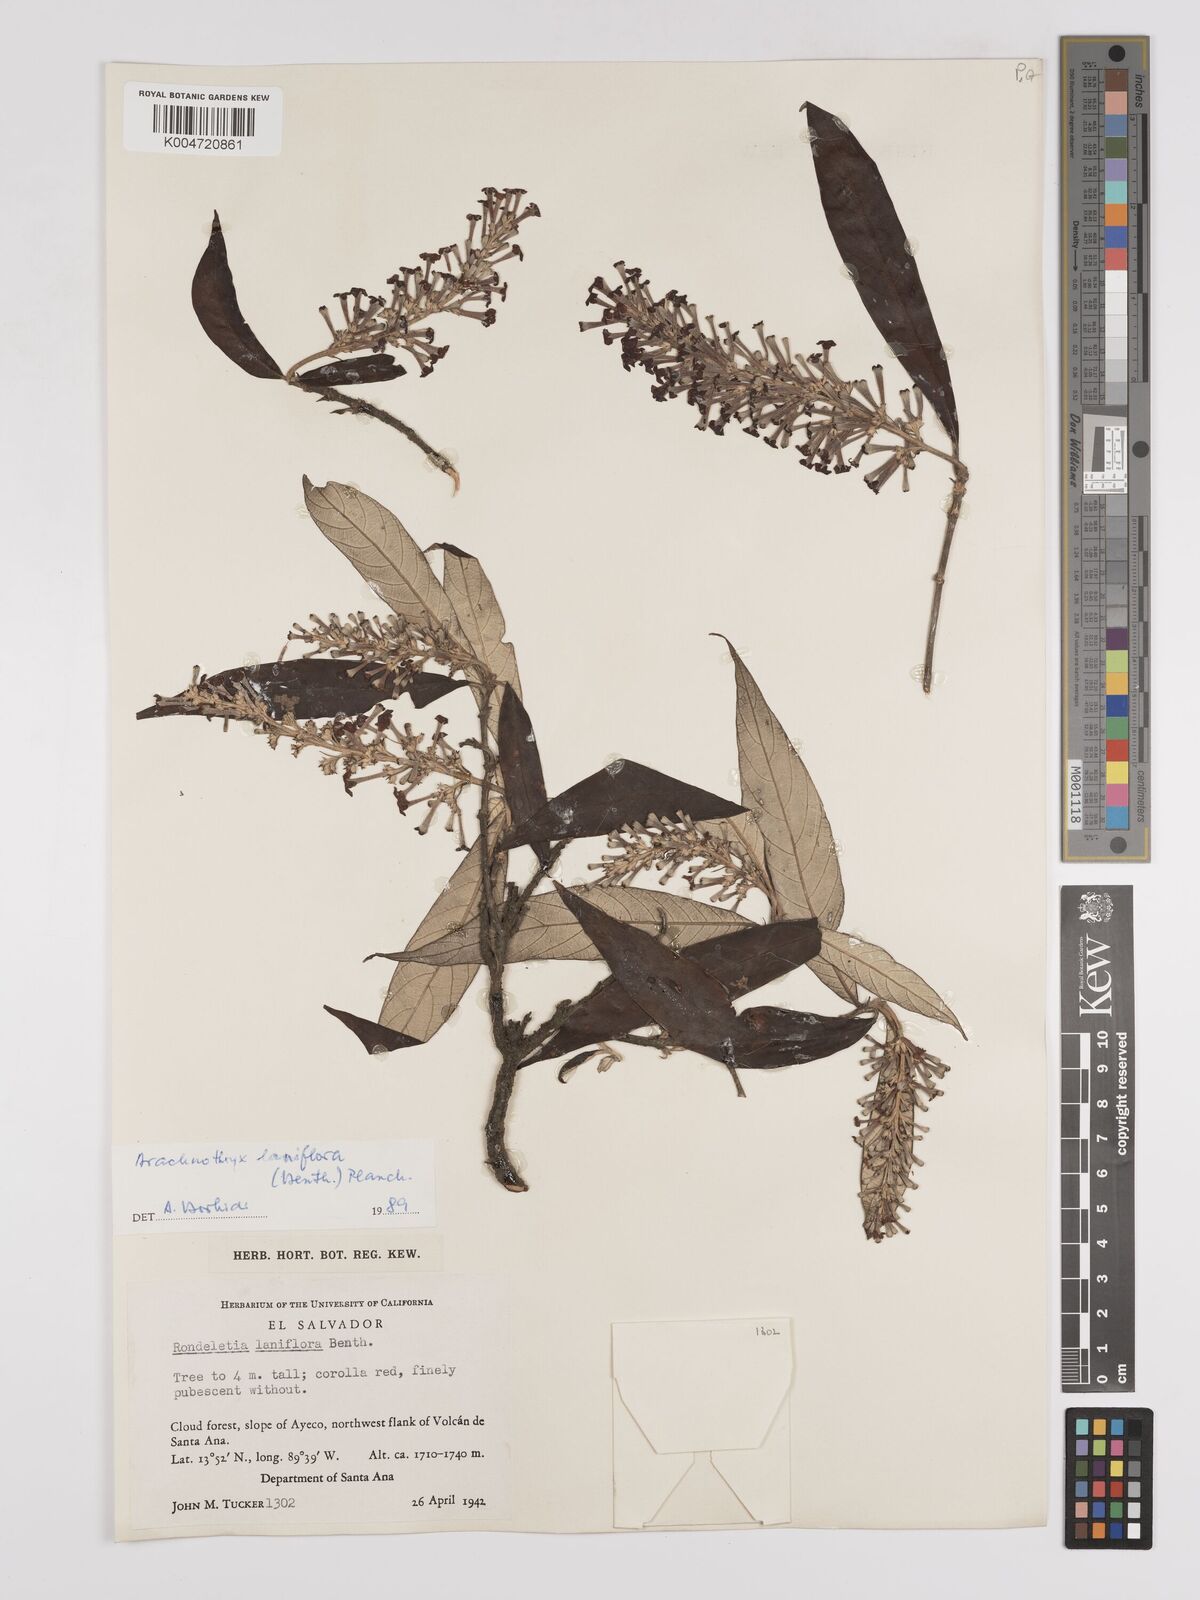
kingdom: Plantae
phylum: Tracheophyta
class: Magnoliopsida
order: Gentianales
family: Rubiaceae
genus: Arachnothryx
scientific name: Arachnothryx laniflora
